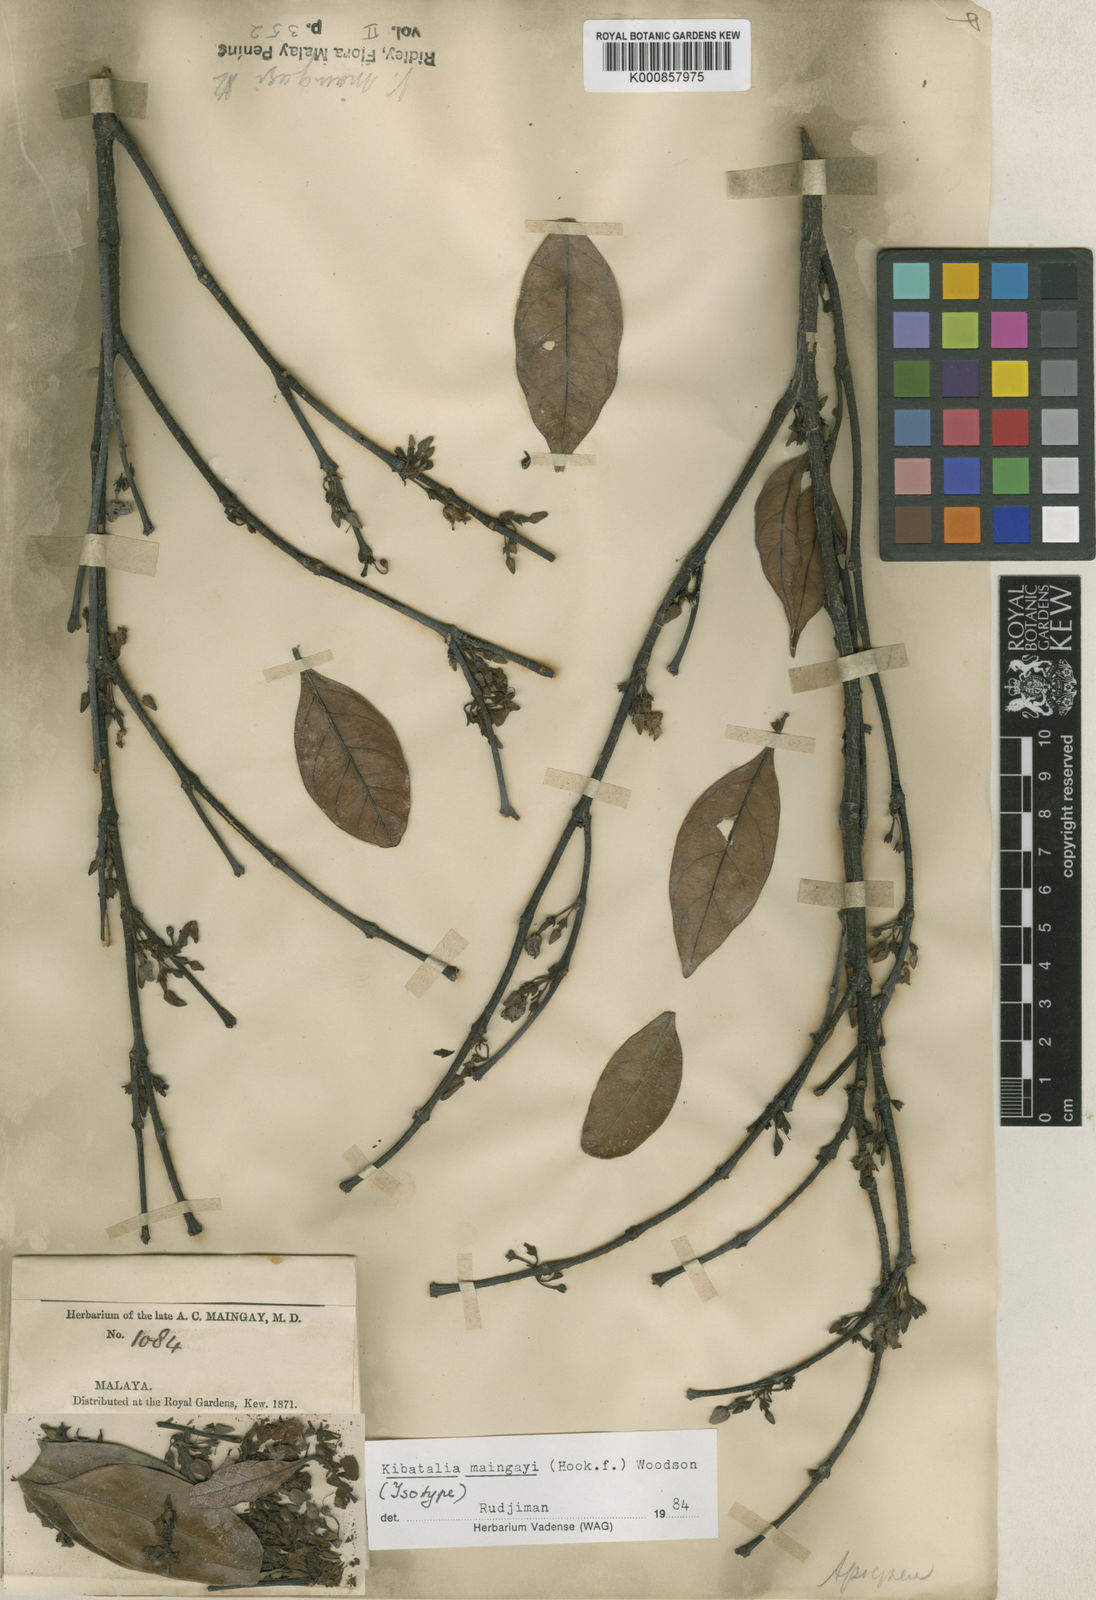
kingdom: Plantae
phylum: Tracheophyta
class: Magnoliopsida
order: Gentianales
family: Apocynaceae
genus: Kibatalia
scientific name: Kibatalia maingayi
